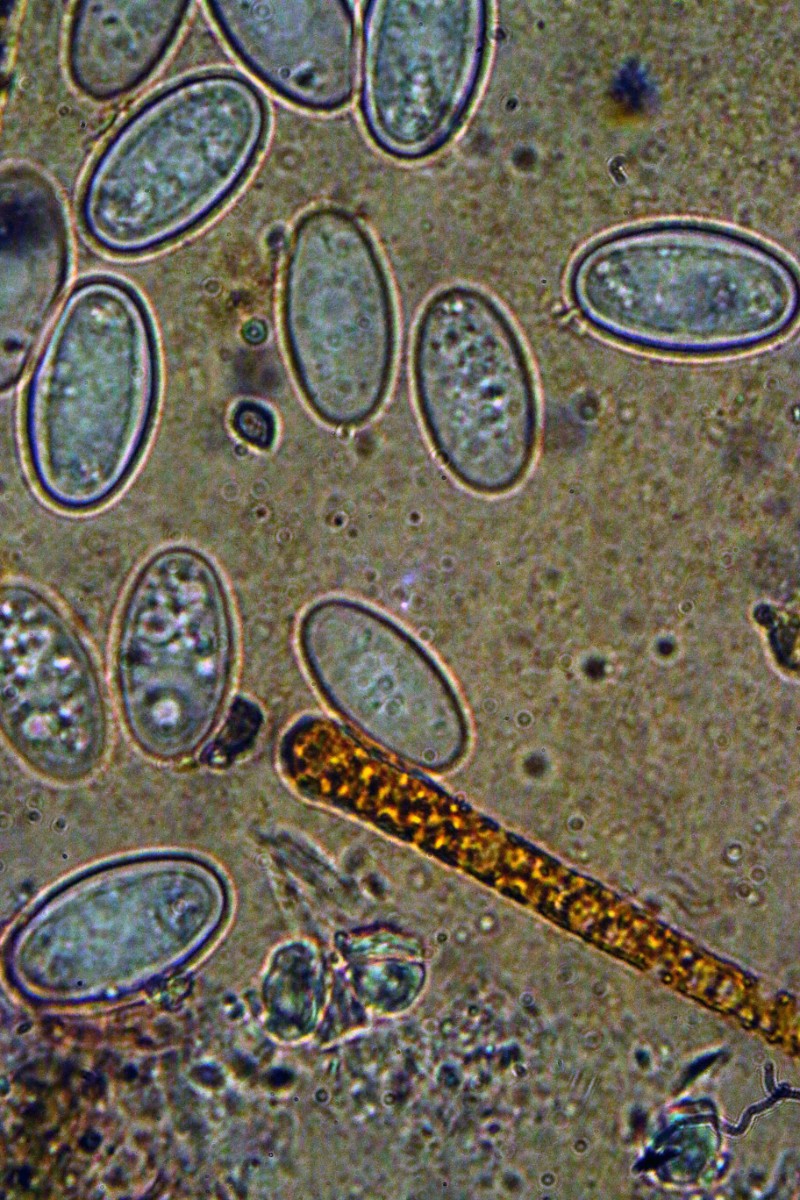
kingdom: Fungi
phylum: Ascomycota
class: Pezizomycetes
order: Pezizales
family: Pyronemataceae
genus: Cheilymenia
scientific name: Cheilymenia fimicola
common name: møg-hårbæger
